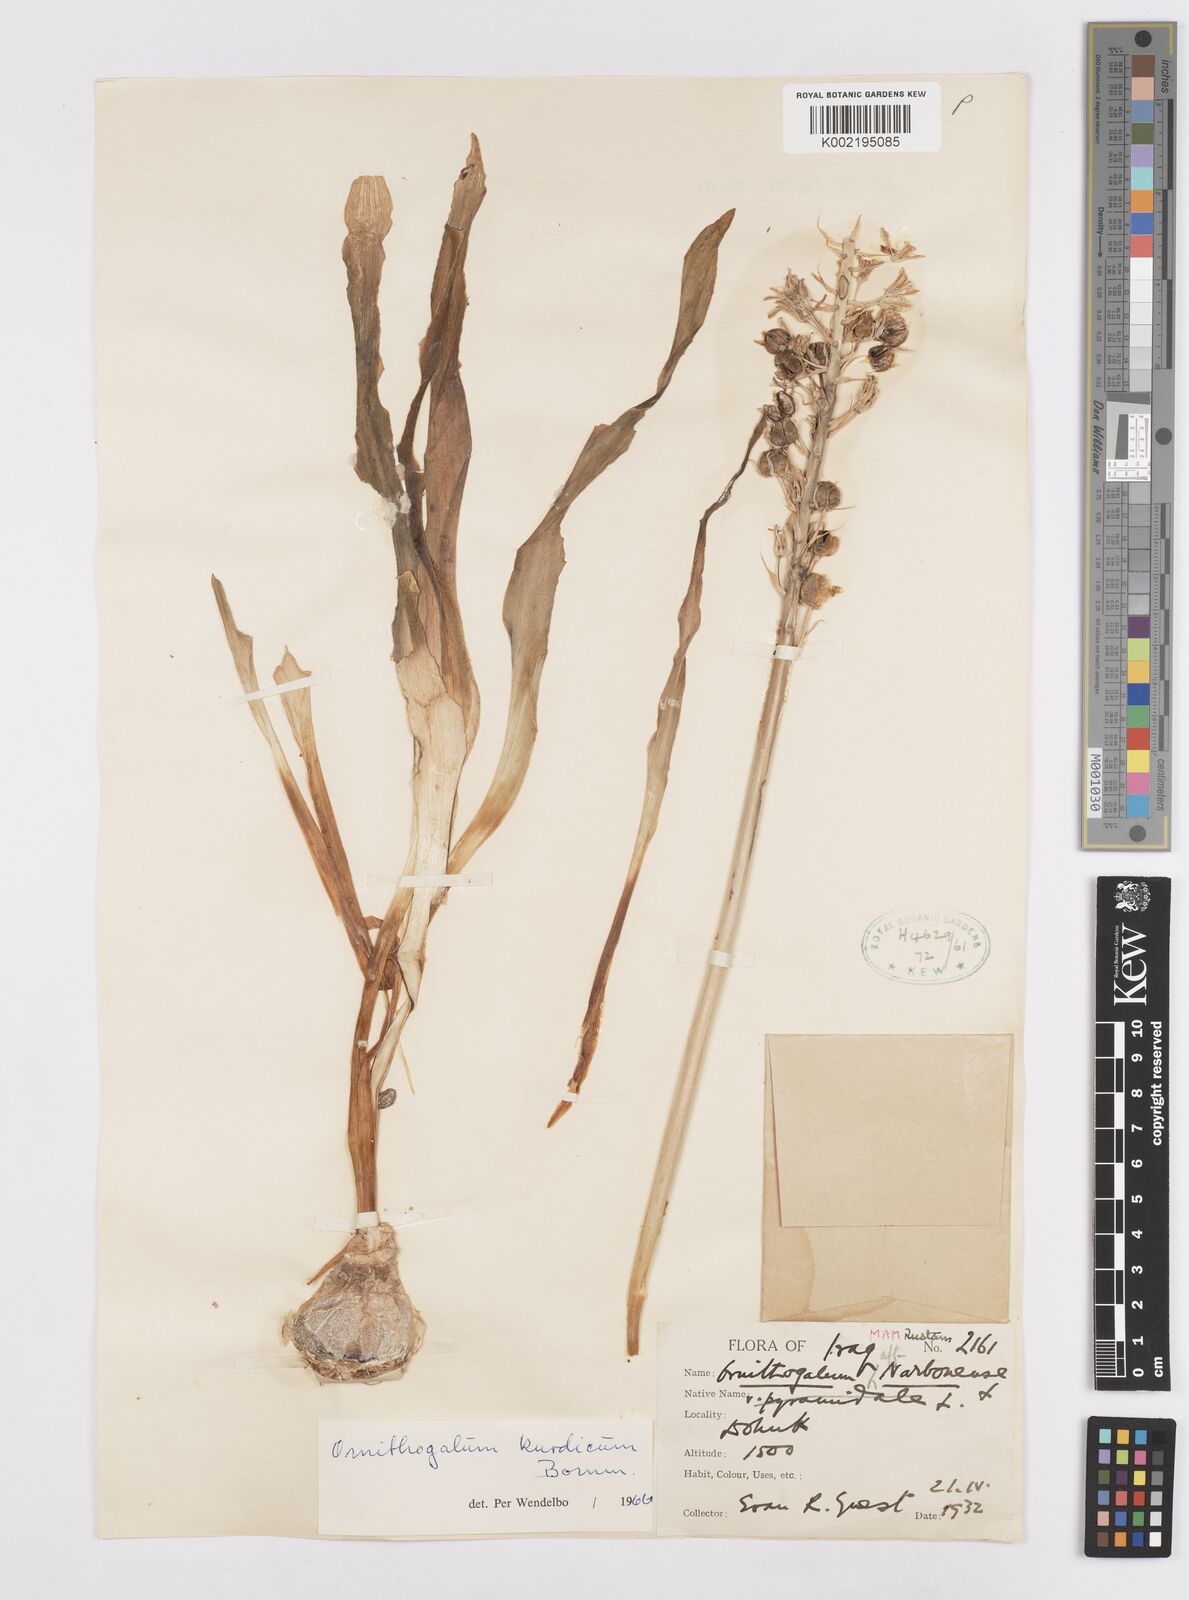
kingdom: Plantae
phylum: Tracheophyta
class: Liliopsida
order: Asparagales
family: Asparagaceae
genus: Ornithogalum
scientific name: Ornithogalum kurdicum
